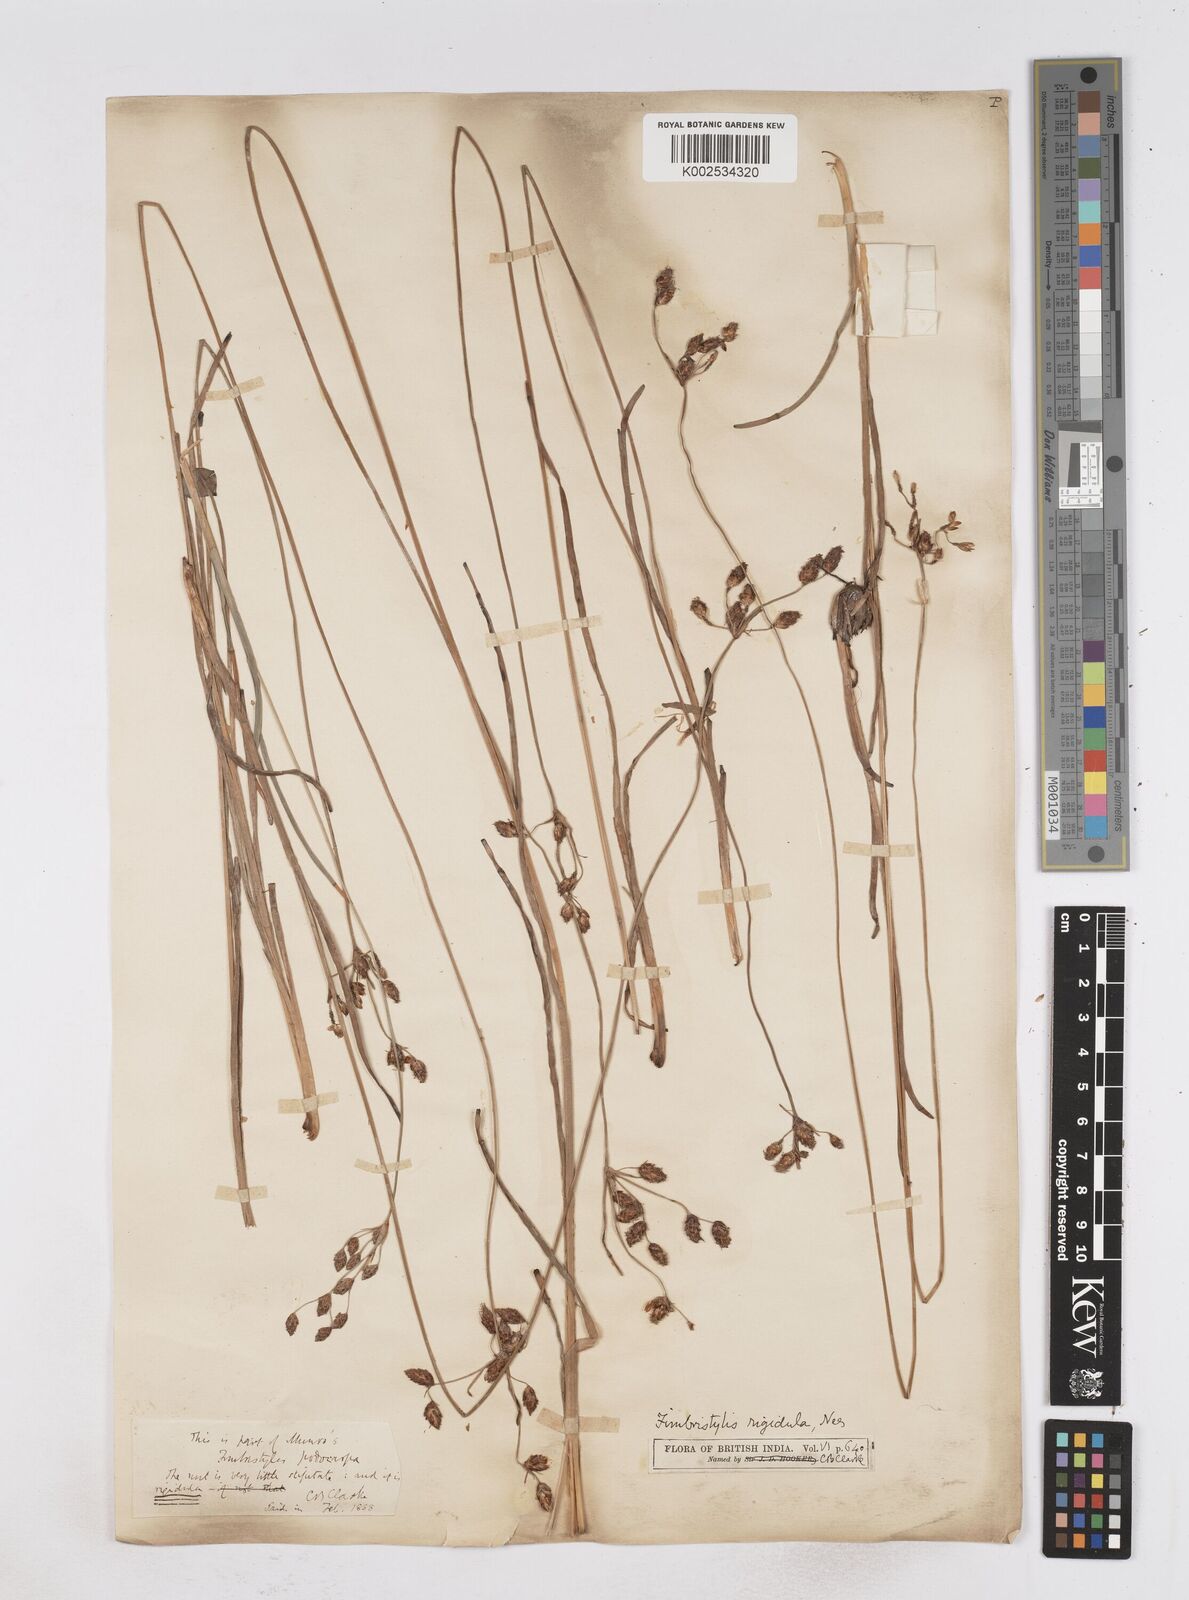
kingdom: Plantae
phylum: Tracheophyta
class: Liliopsida
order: Poales
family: Cyperaceae
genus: Fimbristylis
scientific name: Fimbristylis rigidula
